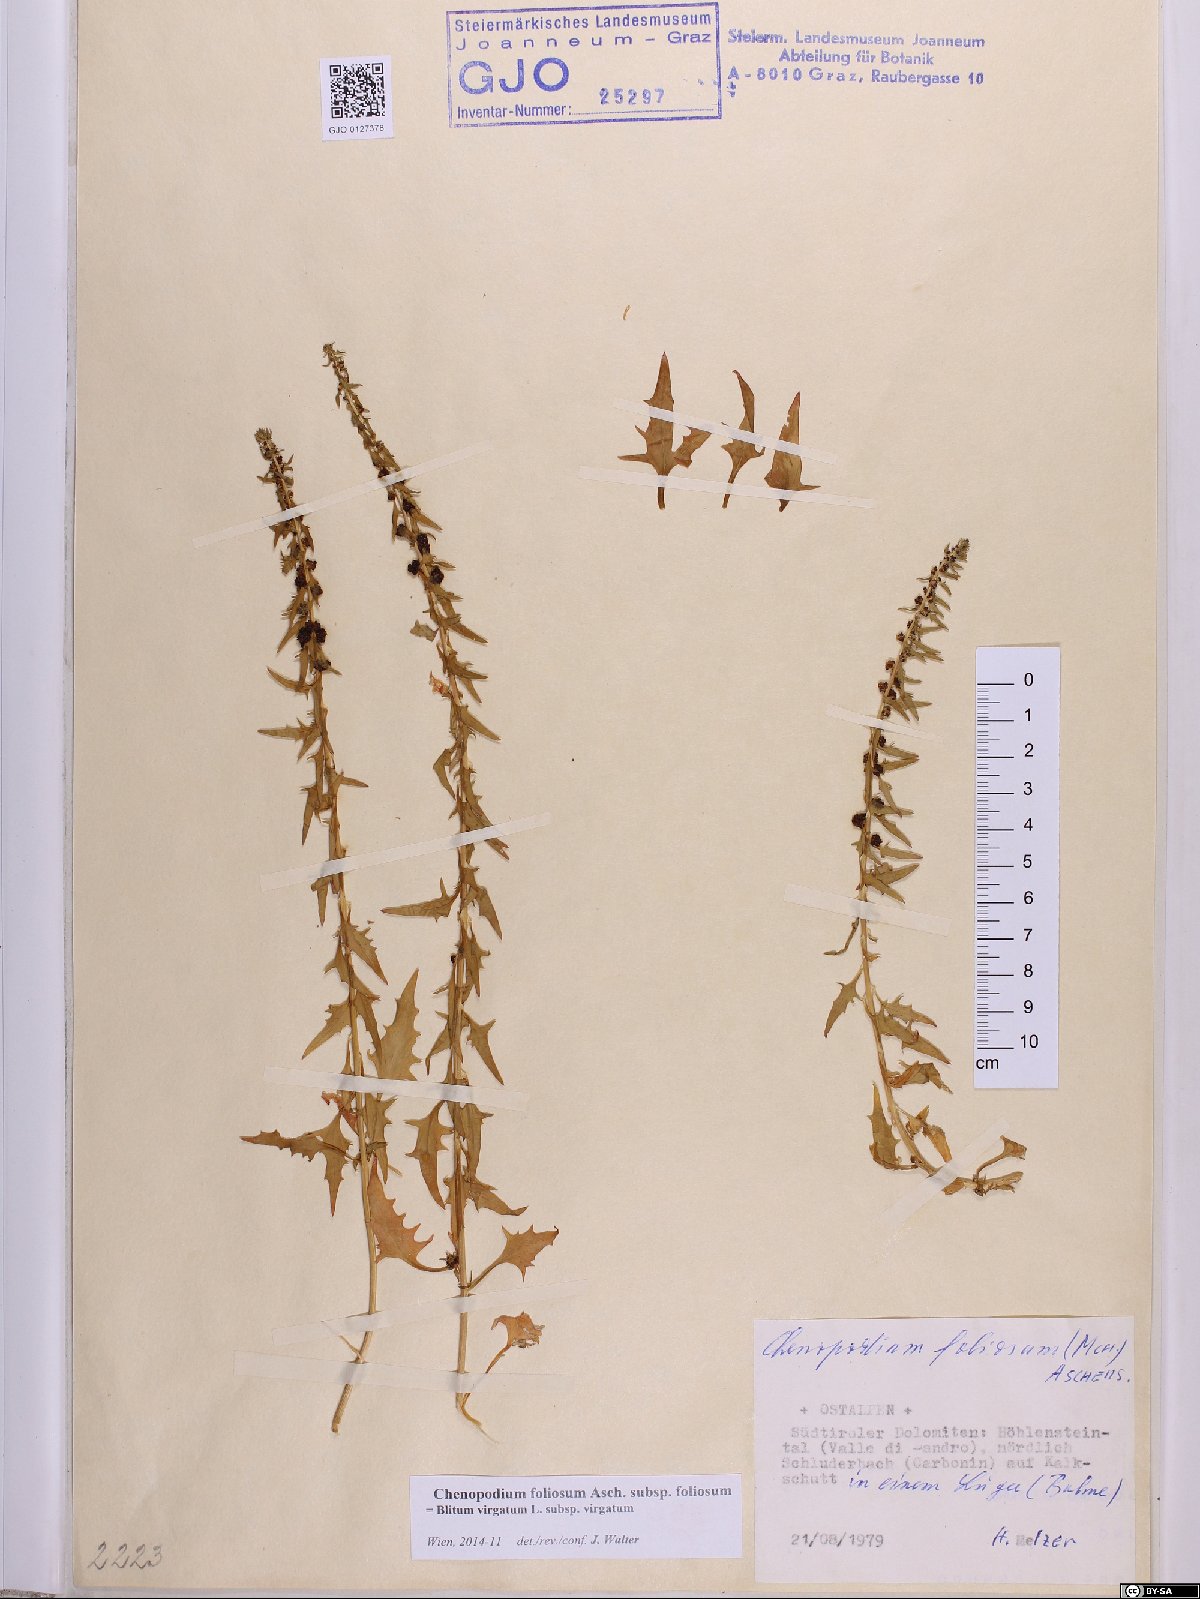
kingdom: Plantae
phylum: Tracheophyta
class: Magnoliopsida
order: Caryophyllales
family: Amaranthaceae
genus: Blitum
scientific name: Blitum virgatum
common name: Strawberry goosefoot
